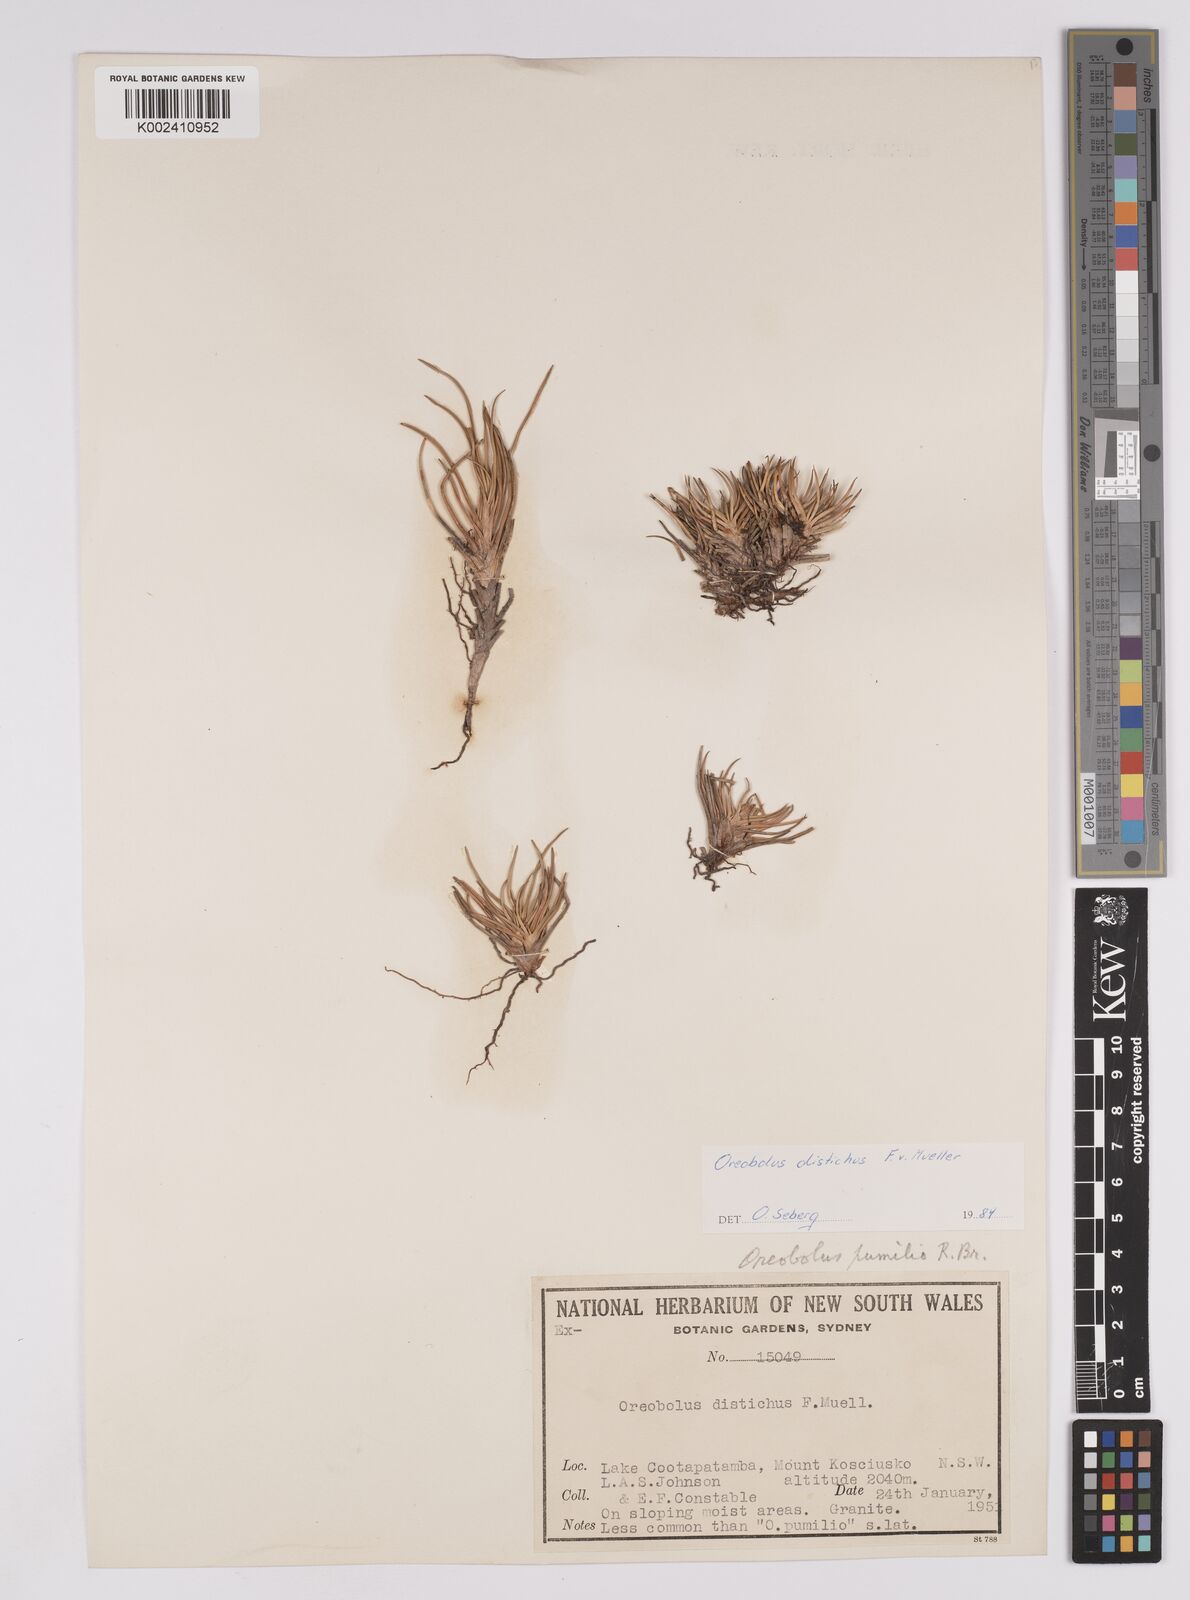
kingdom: Plantae
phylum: Tracheophyta
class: Liliopsida
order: Poales
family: Cyperaceae
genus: Oreobolus
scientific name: Oreobolus distichus
